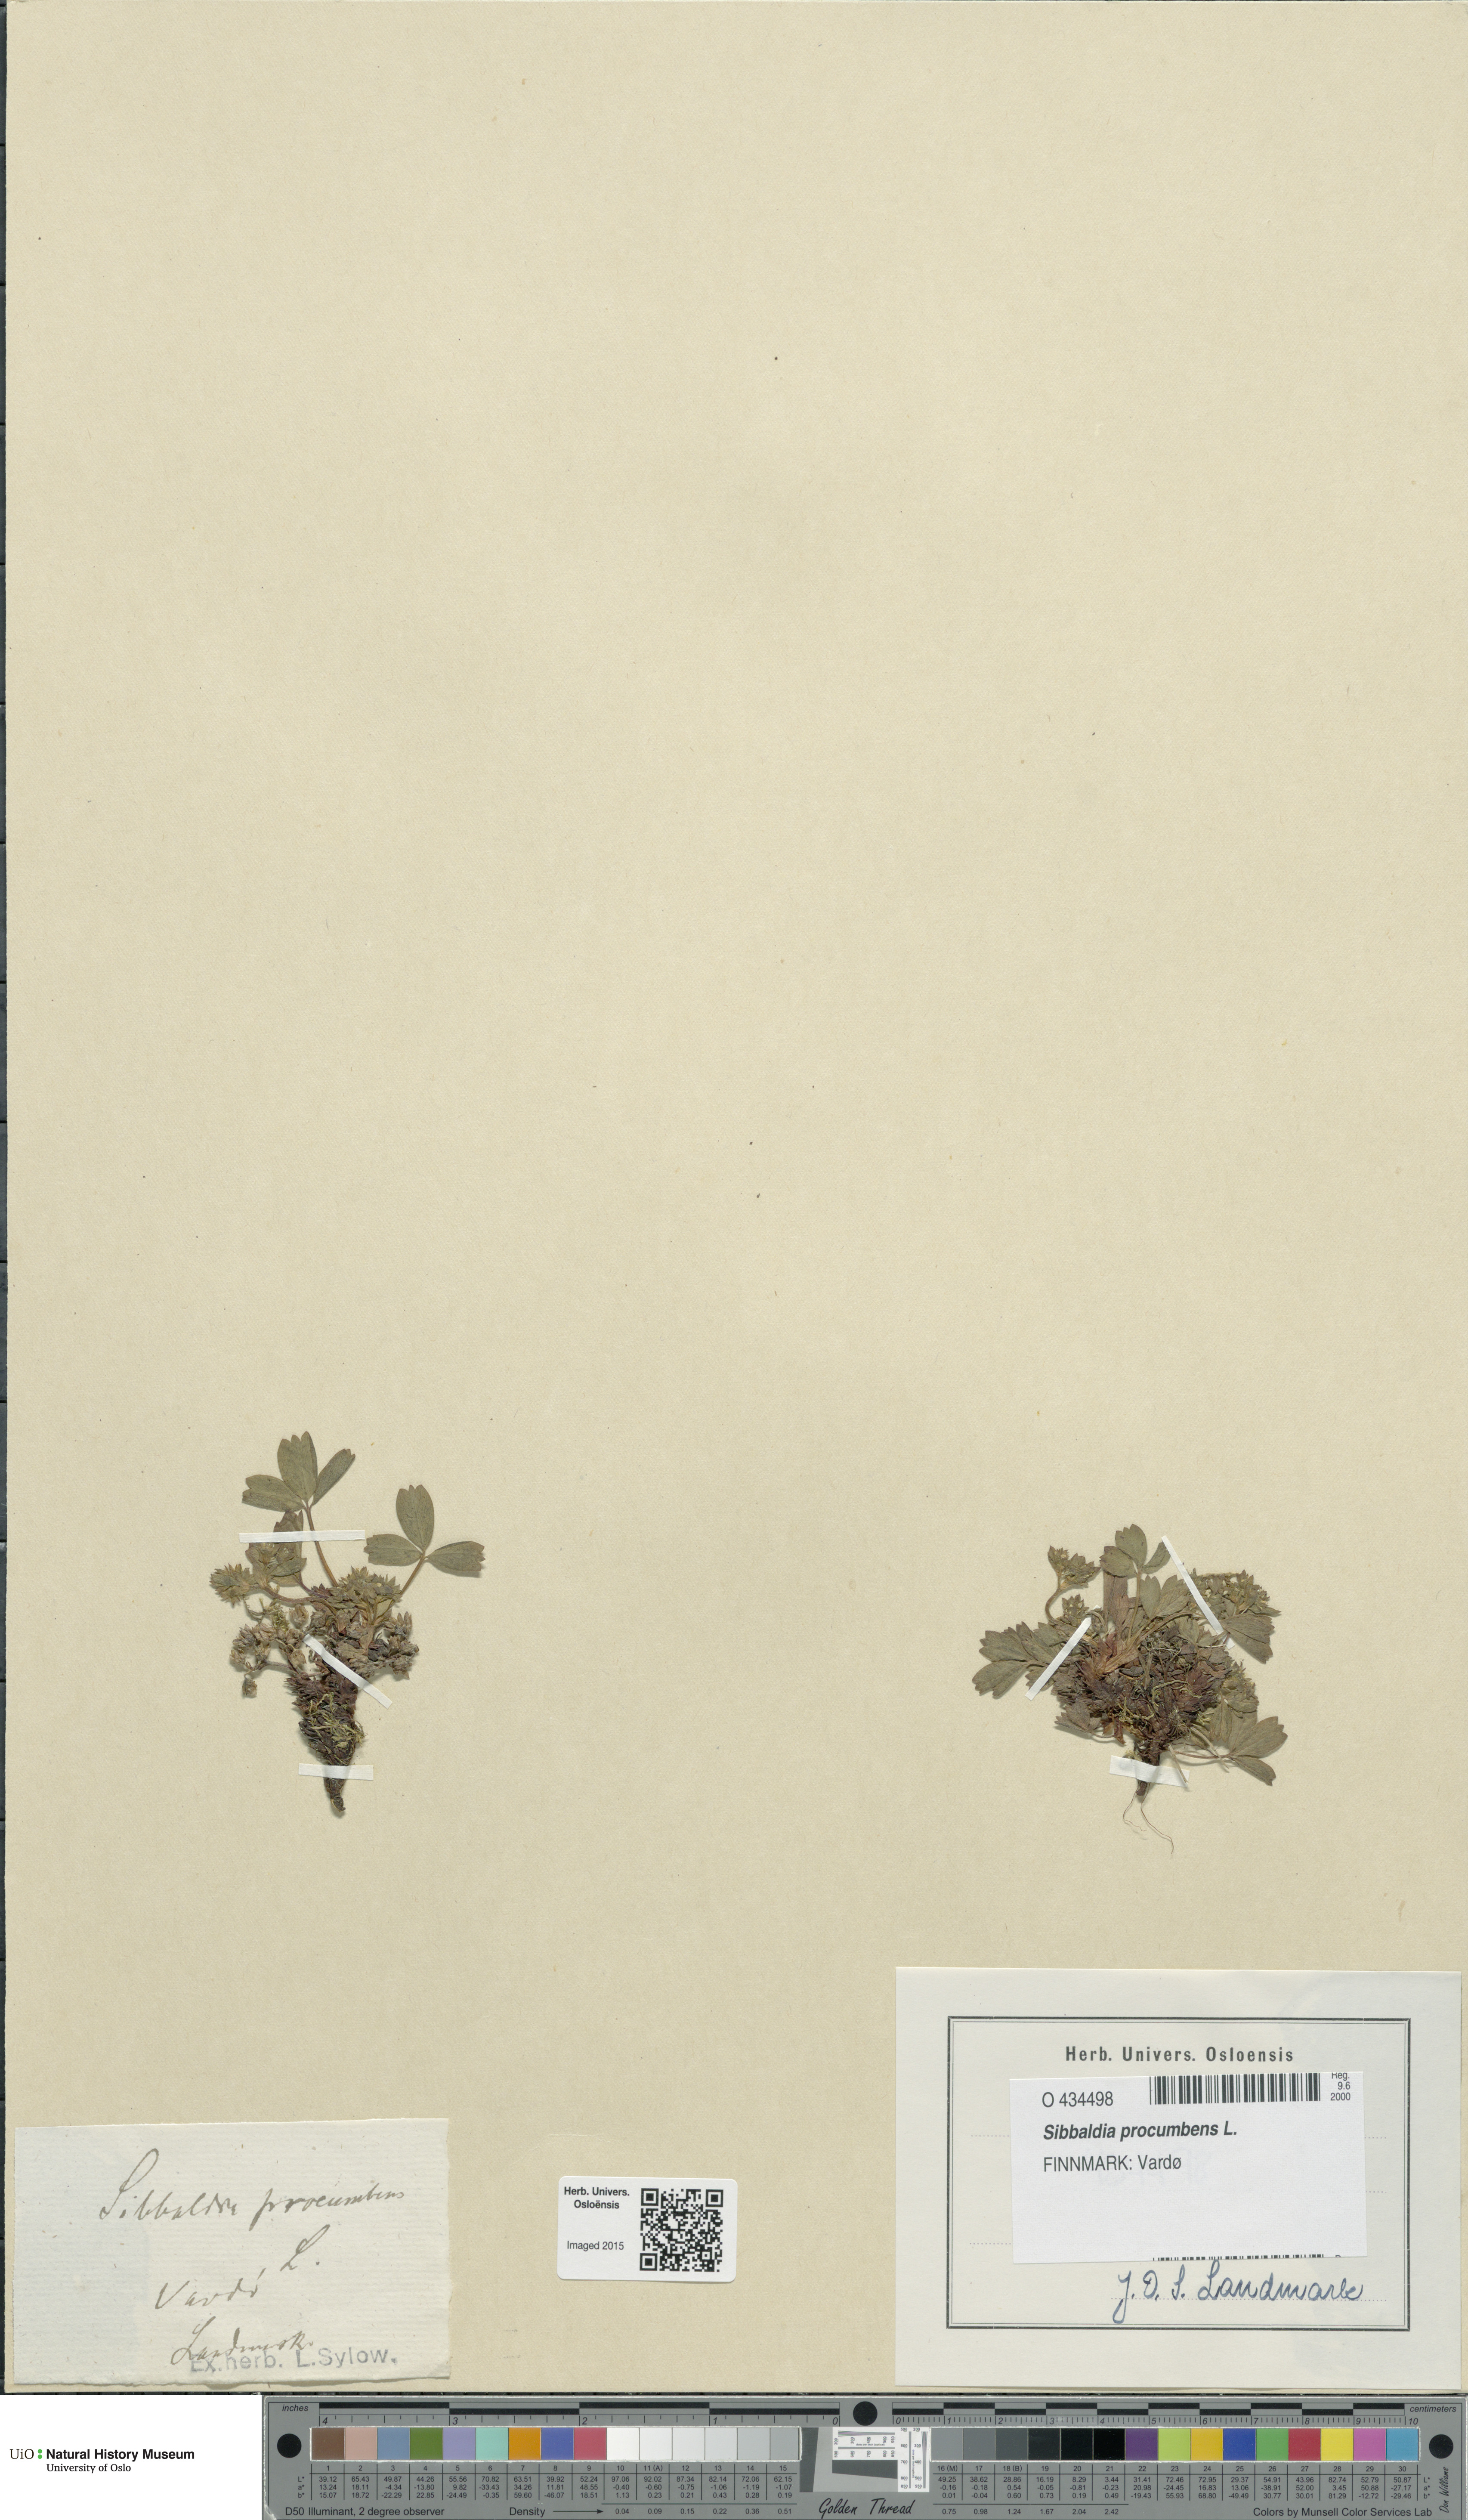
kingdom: Plantae
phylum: Tracheophyta
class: Magnoliopsida
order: Rosales
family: Rosaceae
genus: Sibbaldia
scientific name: Sibbaldia procumbens
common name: Creeping sibbaldia
